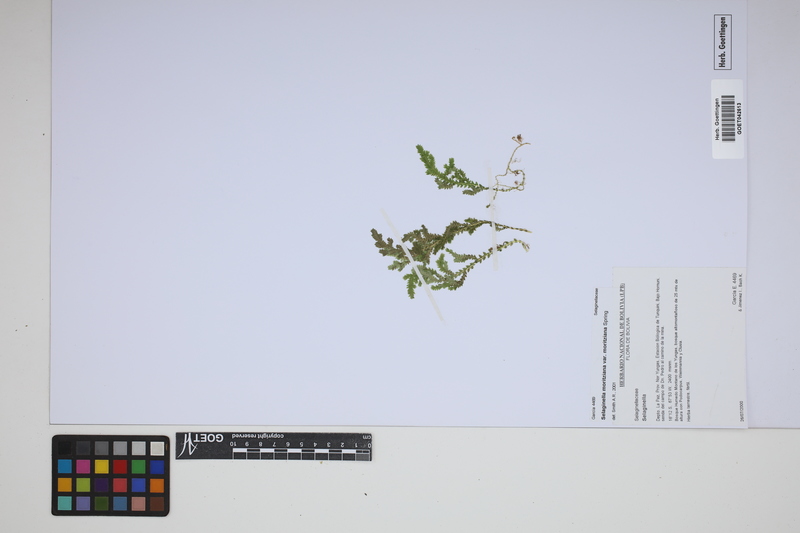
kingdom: Plantae
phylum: Tracheophyta
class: Lycopodiopsida
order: Selaginellales
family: Selaginellaceae
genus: Selaginella
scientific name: Selaginella moritziana
